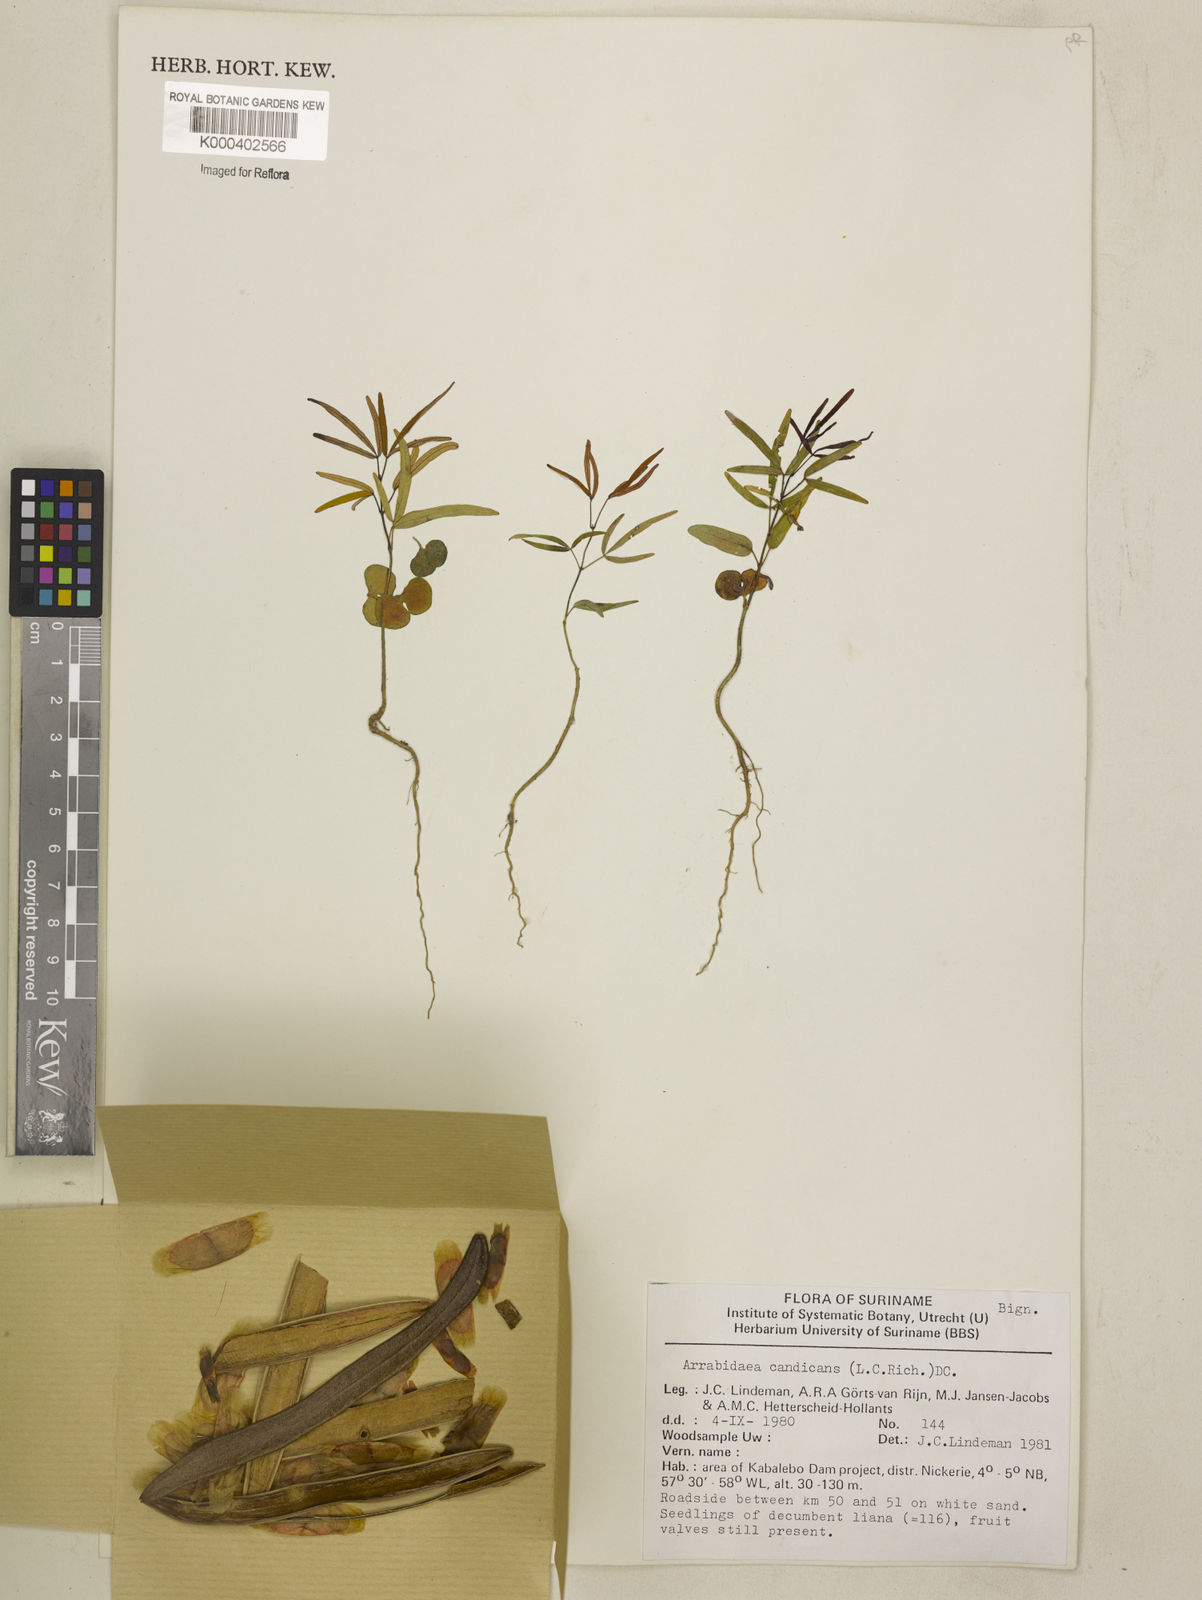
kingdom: Plantae
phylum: Tracheophyta
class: Magnoliopsida
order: Lamiales
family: Bignoniaceae
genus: Fridericia
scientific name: Fridericia candicans
